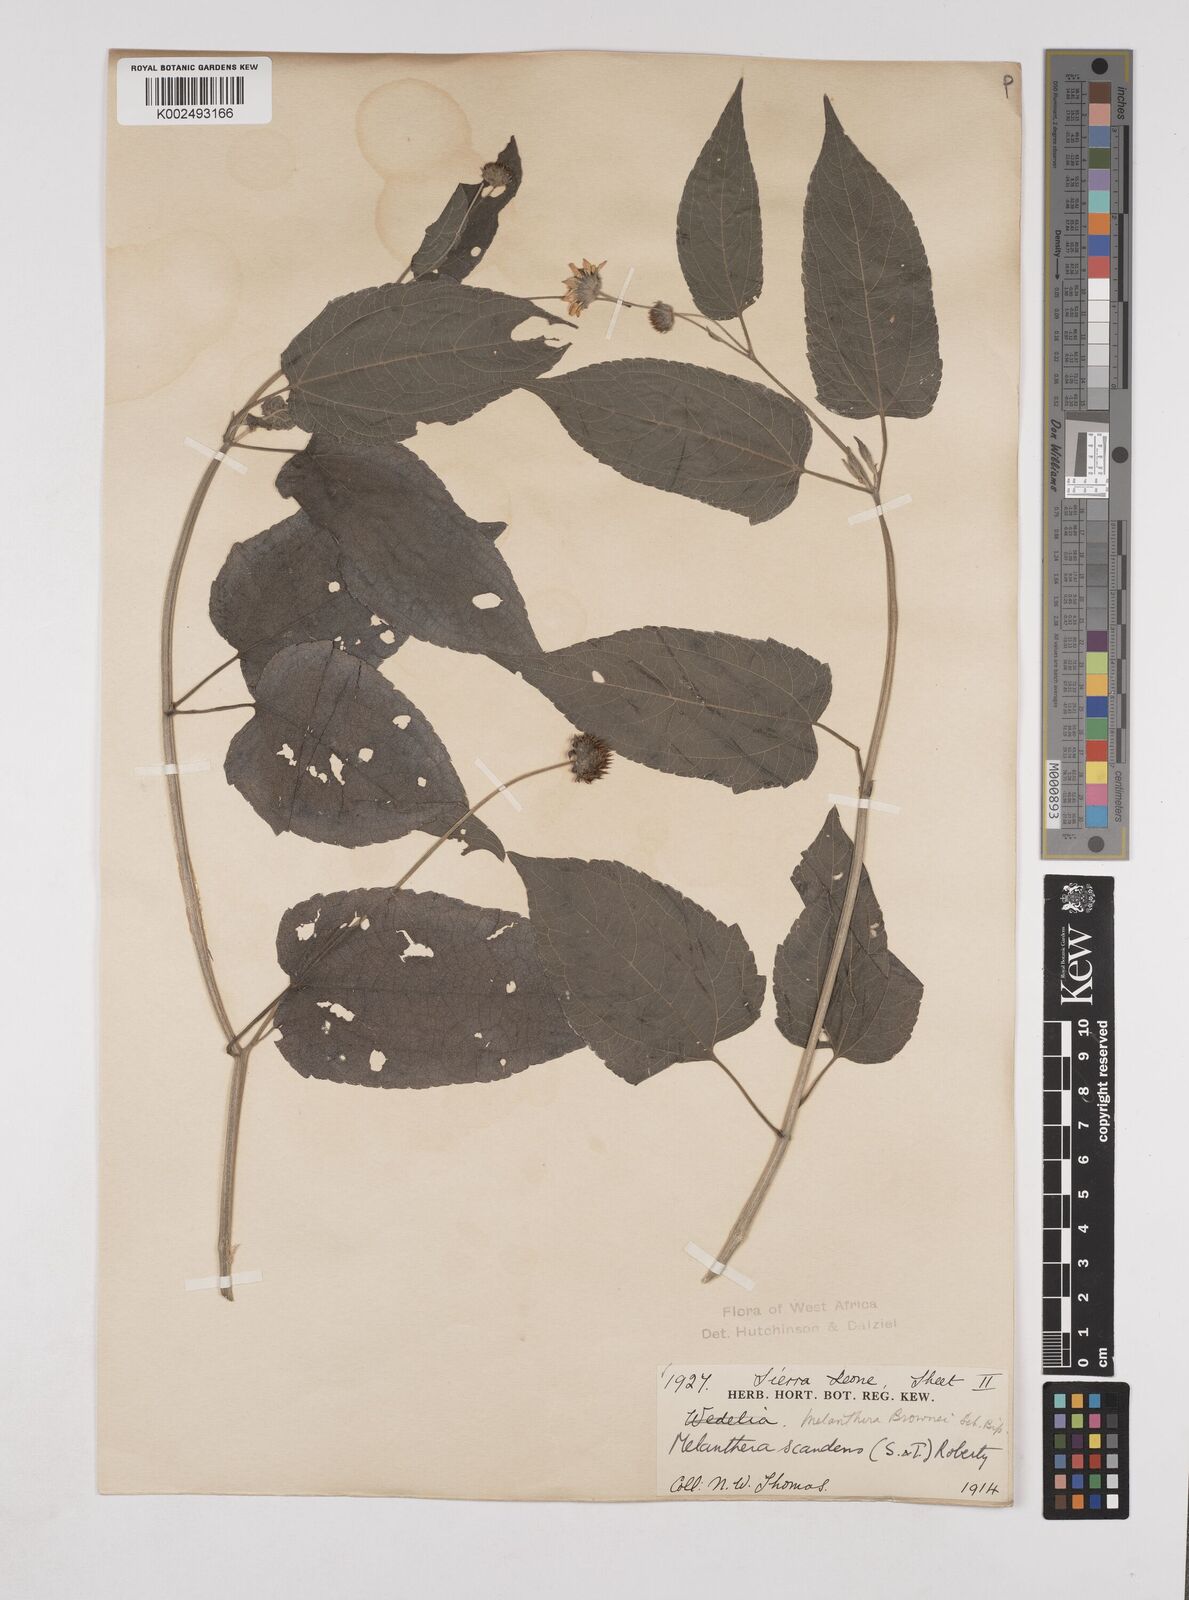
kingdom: Plantae
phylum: Tracheophyta
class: Magnoliopsida
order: Asterales
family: Asteraceae
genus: Lipotriche
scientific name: Lipotriche scandens
